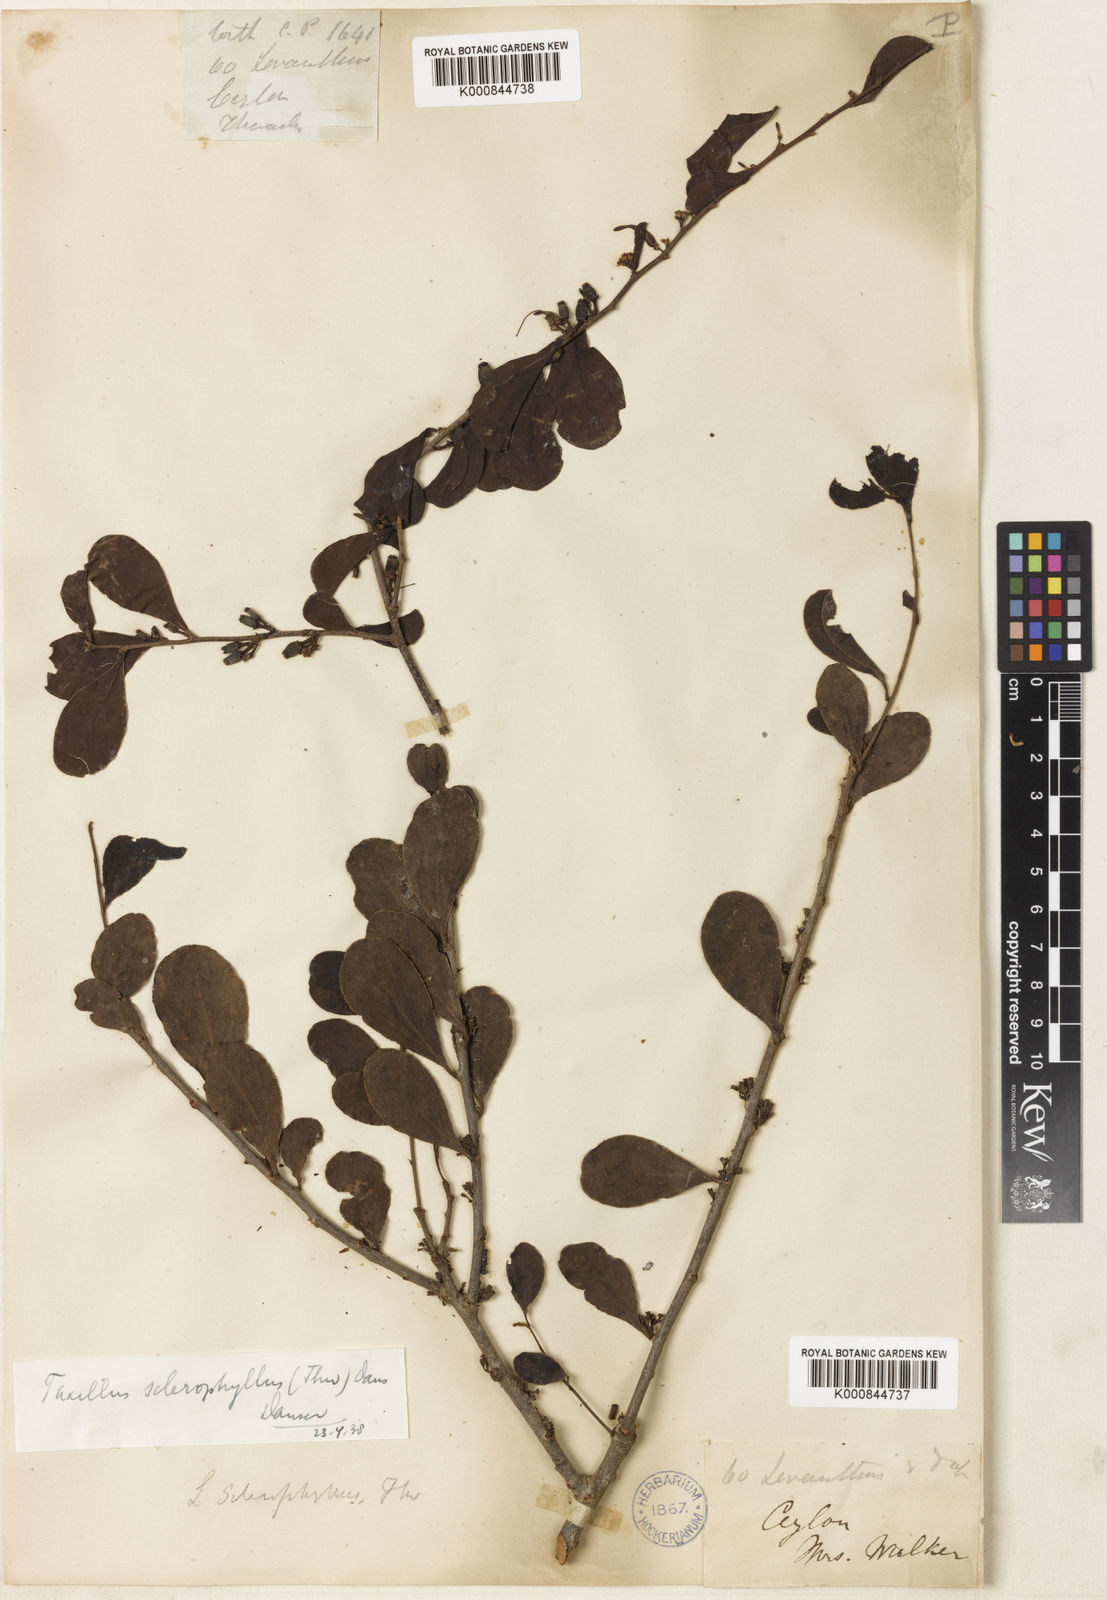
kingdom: Plantae
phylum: Tracheophyta
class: Magnoliopsida
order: Santalales
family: Loranthaceae
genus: Taxillus
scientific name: Taxillus sclerophyllus
